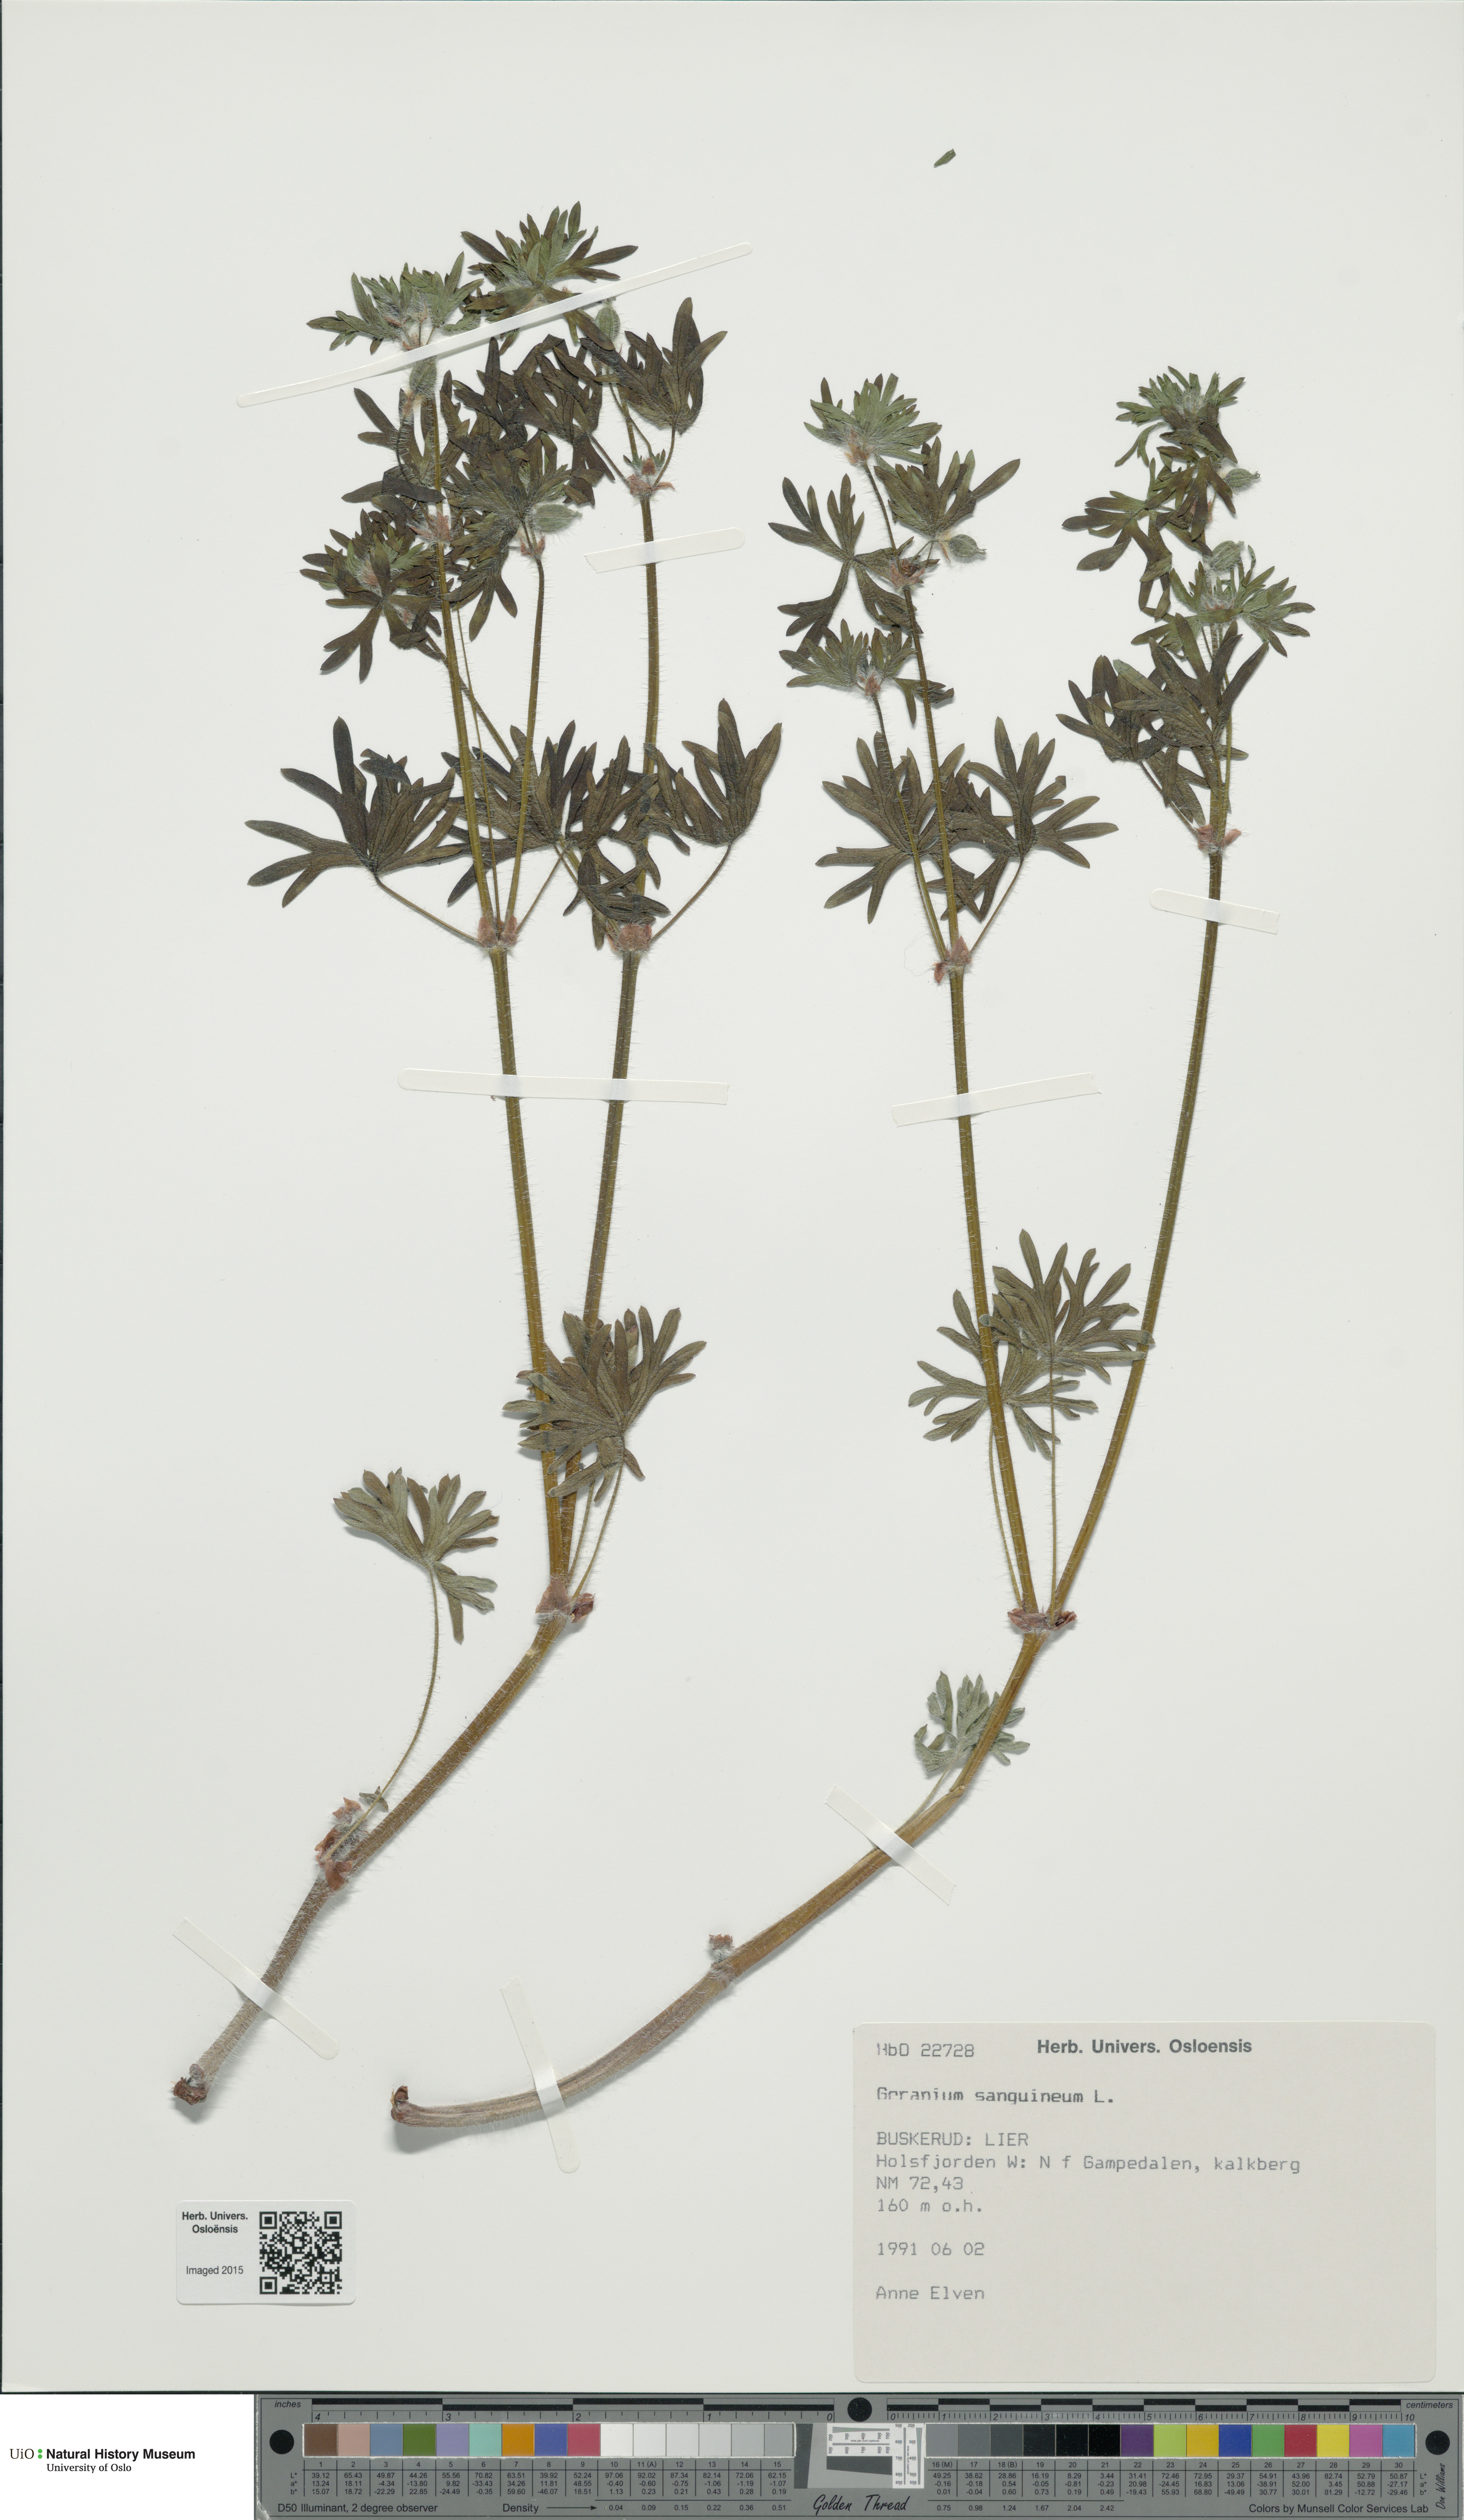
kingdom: Plantae
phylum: Tracheophyta
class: Magnoliopsida
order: Geraniales
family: Geraniaceae
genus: Geranium
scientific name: Geranium sanguineum
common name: Bloody crane's-bill
